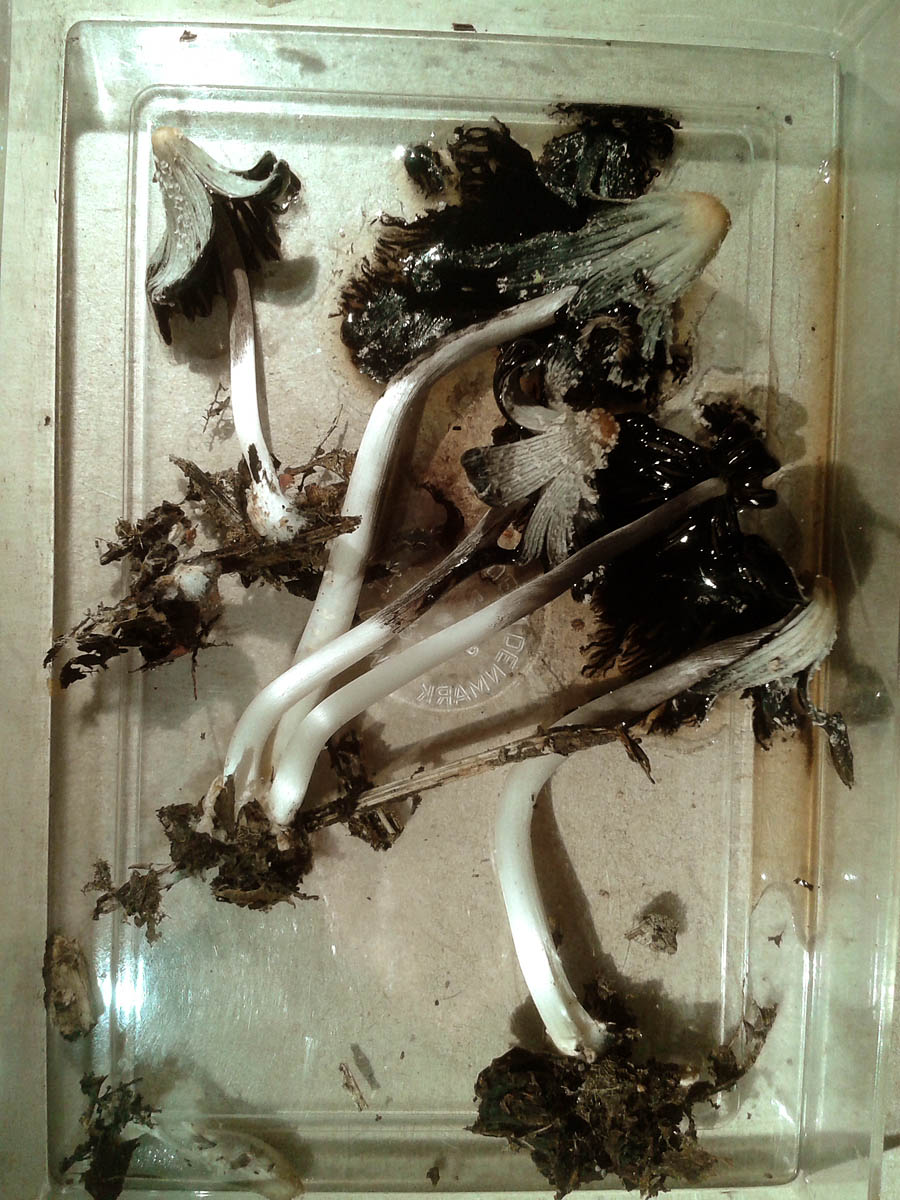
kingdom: Fungi
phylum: Basidiomycota
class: Agaricomycetes
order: Agaricales
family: Psathyrellaceae
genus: Coprinellus
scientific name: Coprinellus flocculosus
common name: fnugget blækhat
